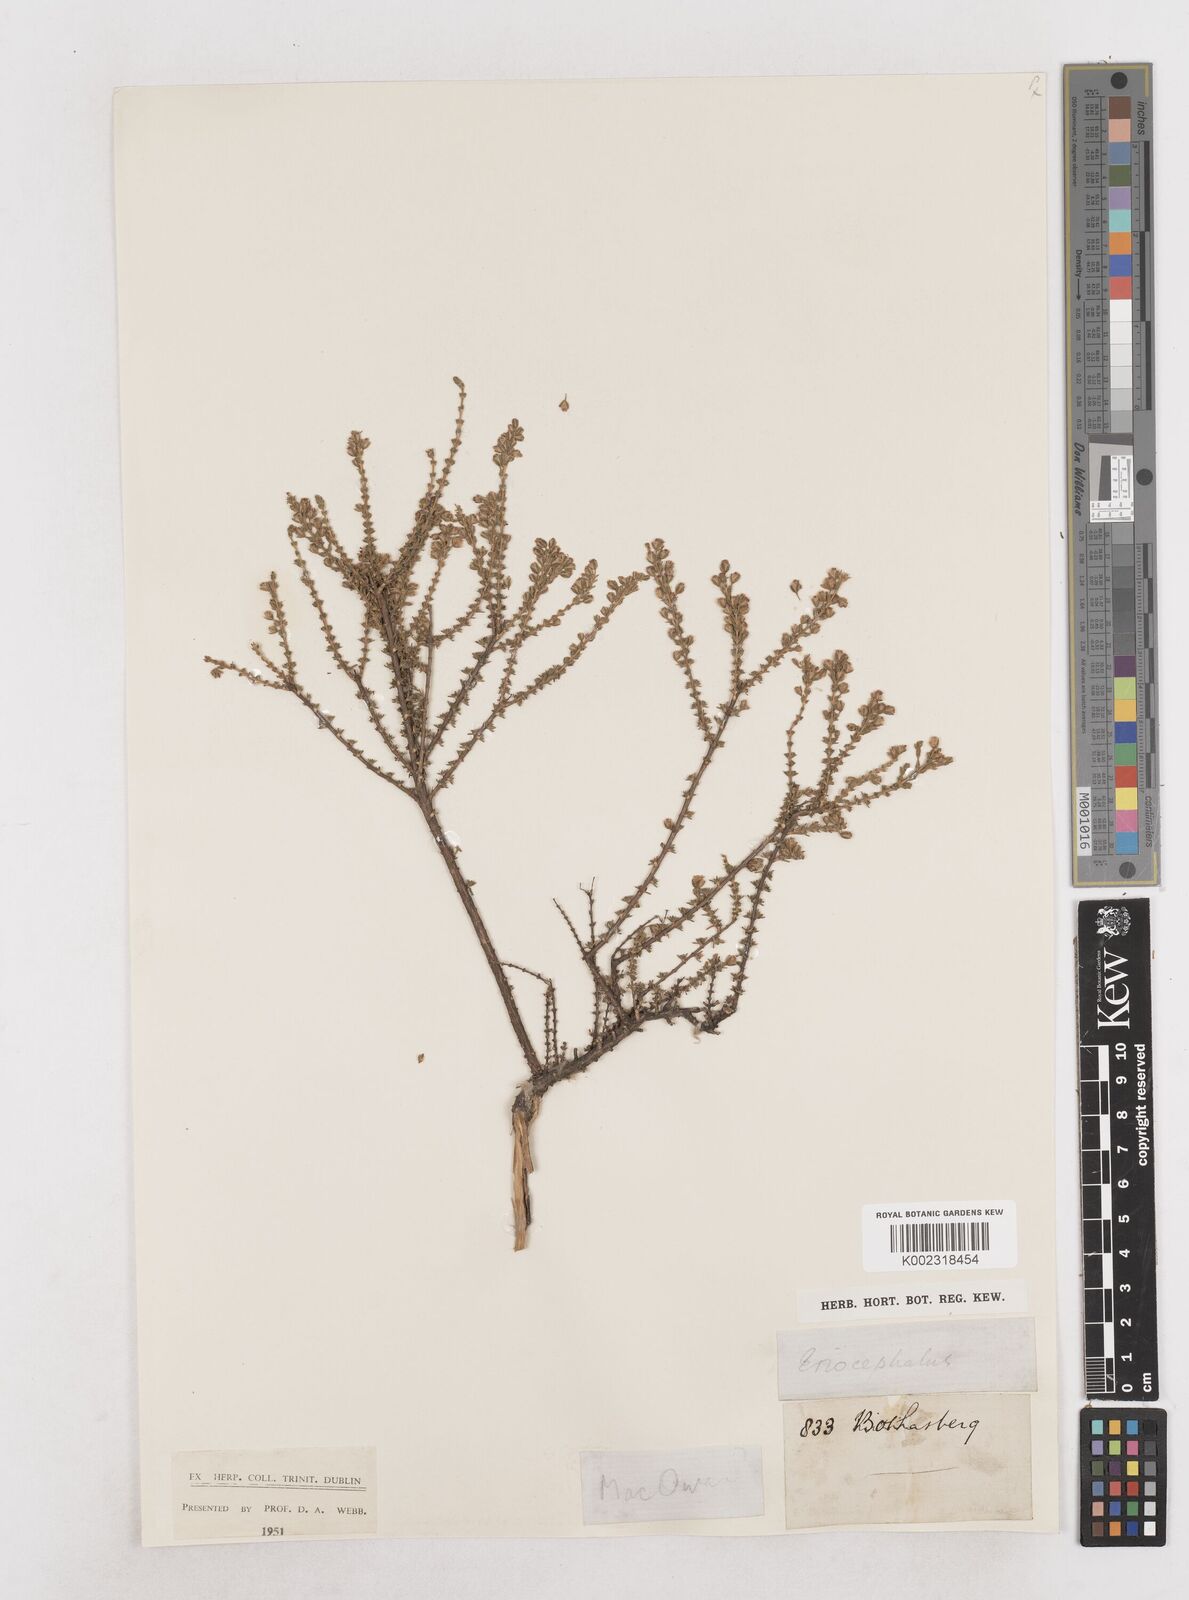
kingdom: Plantae
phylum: Tracheophyta
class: Magnoliopsida
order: Asterales
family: Asteraceae
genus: Eriocephalus
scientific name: Eriocephalus
